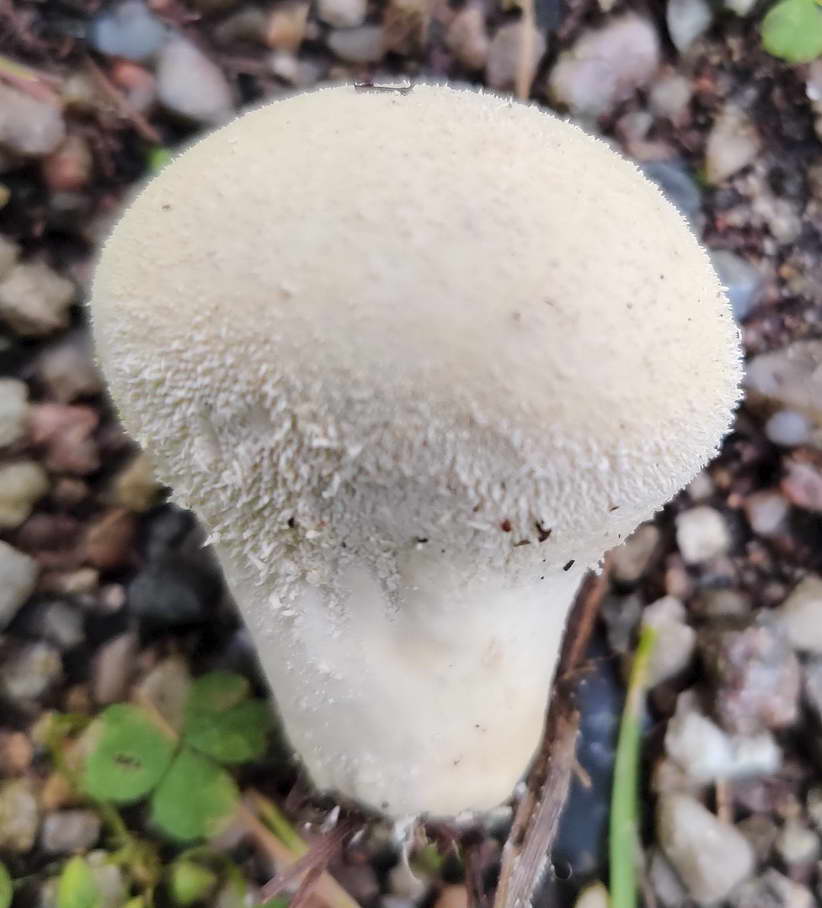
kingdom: Fungi
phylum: Basidiomycota
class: Agaricomycetes
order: Agaricales
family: Lycoperdaceae
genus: Lycoperdon
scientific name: Lycoperdon molle
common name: skov-støvbold
